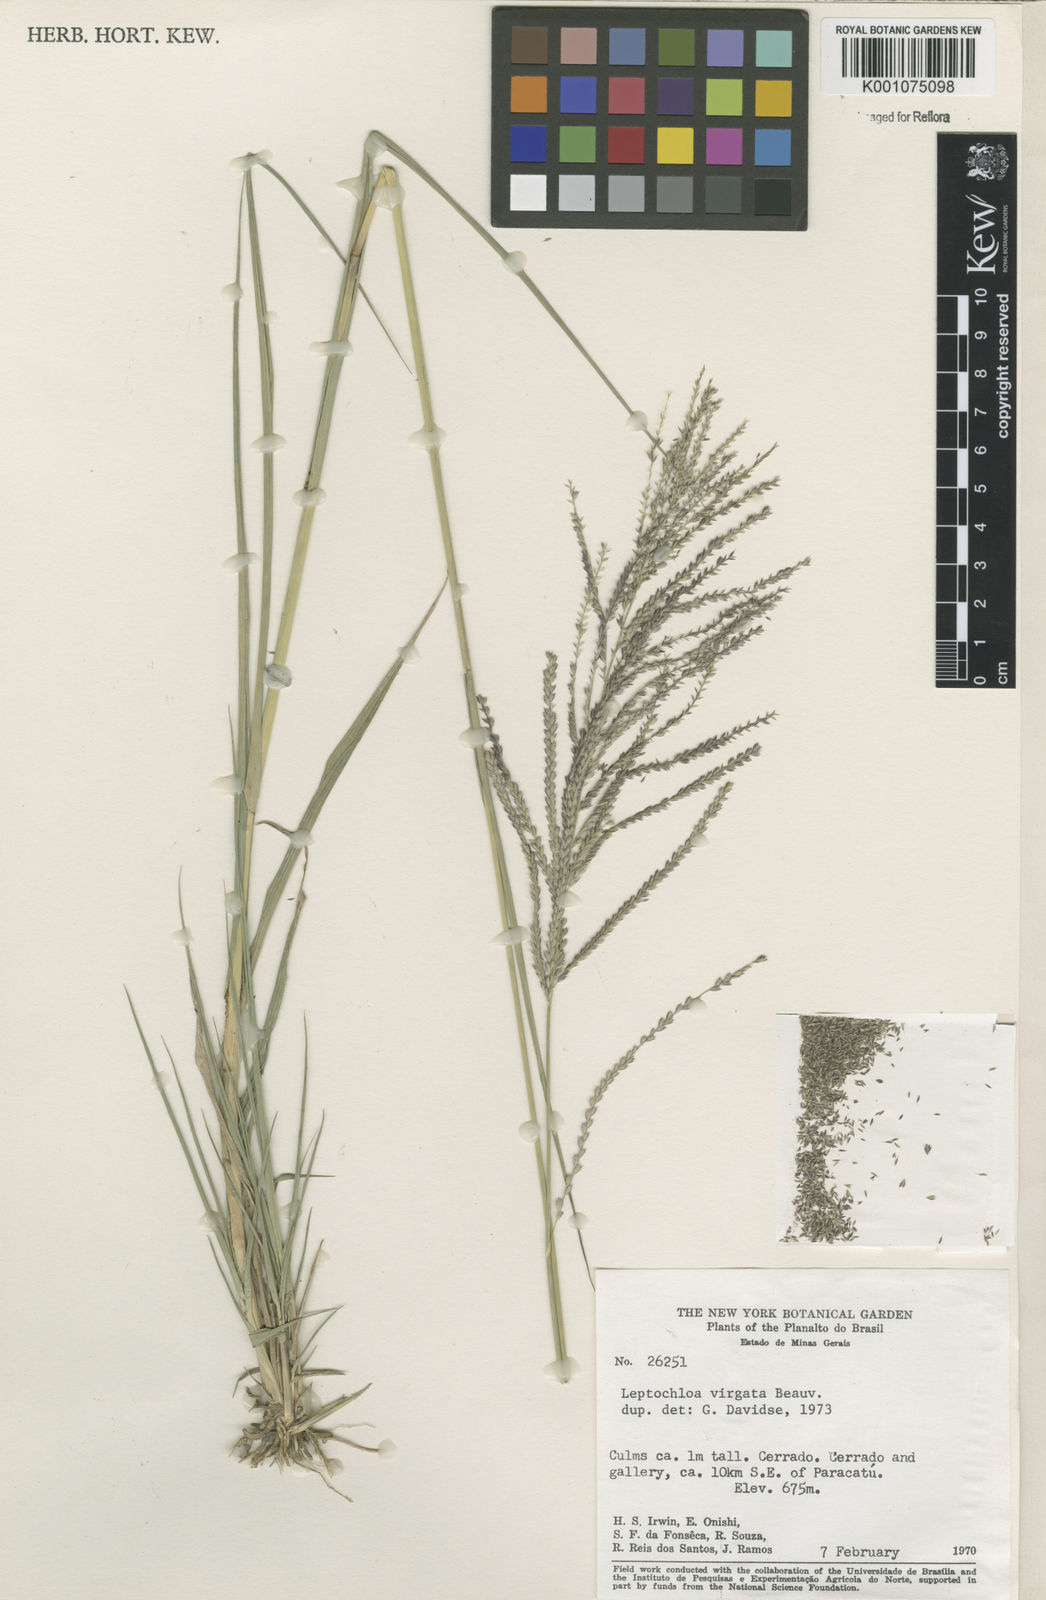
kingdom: Plantae
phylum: Tracheophyta
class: Liliopsida
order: Poales
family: Poaceae
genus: Leptochloa
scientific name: Leptochloa virgata
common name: Tropical sprangletop
